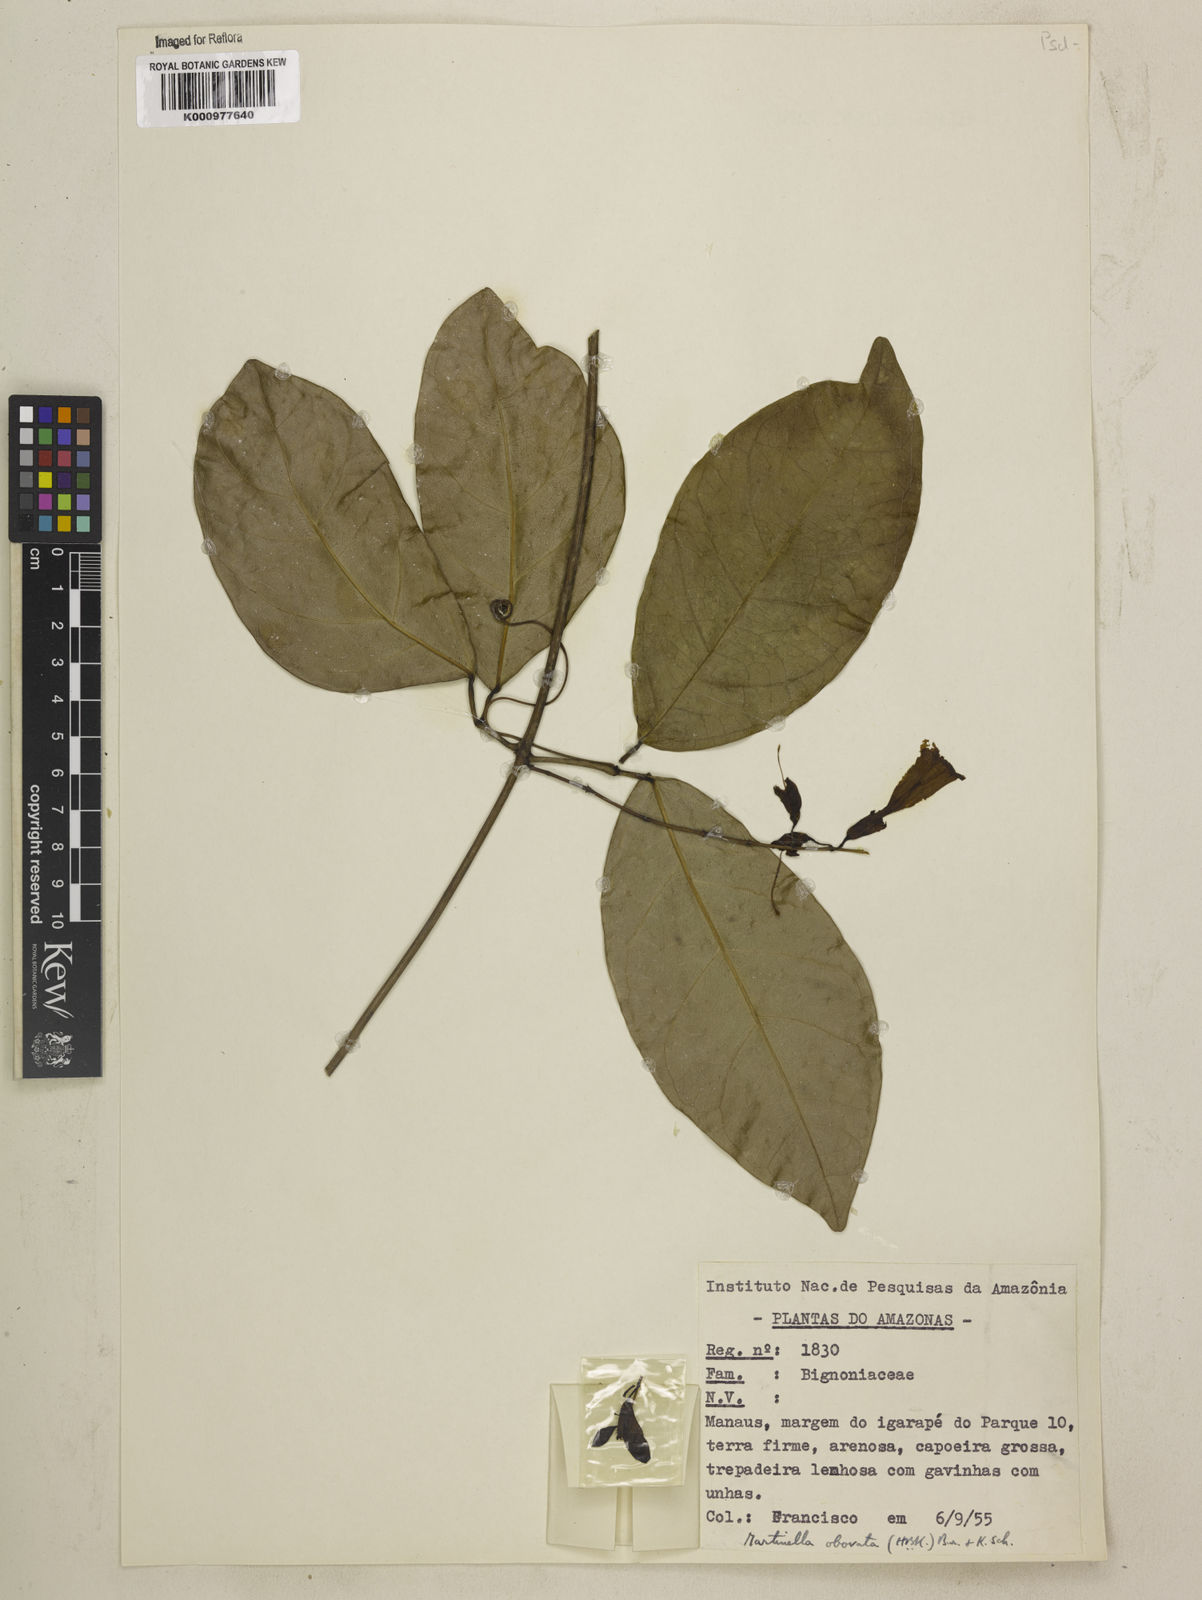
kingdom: Animalia
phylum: Arthropoda
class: Insecta
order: Coleoptera
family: Chrysomelidae
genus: Martinella
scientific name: Martinella obovata
